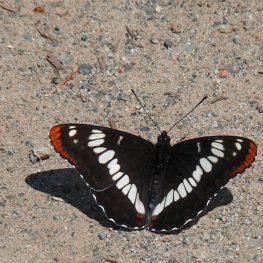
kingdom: Animalia
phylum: Arthropoda
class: Insecta
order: Lepidoptera
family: Nymphalidae
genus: Limenitis
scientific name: Limenitis lorquini
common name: Lorquin's Admiral
